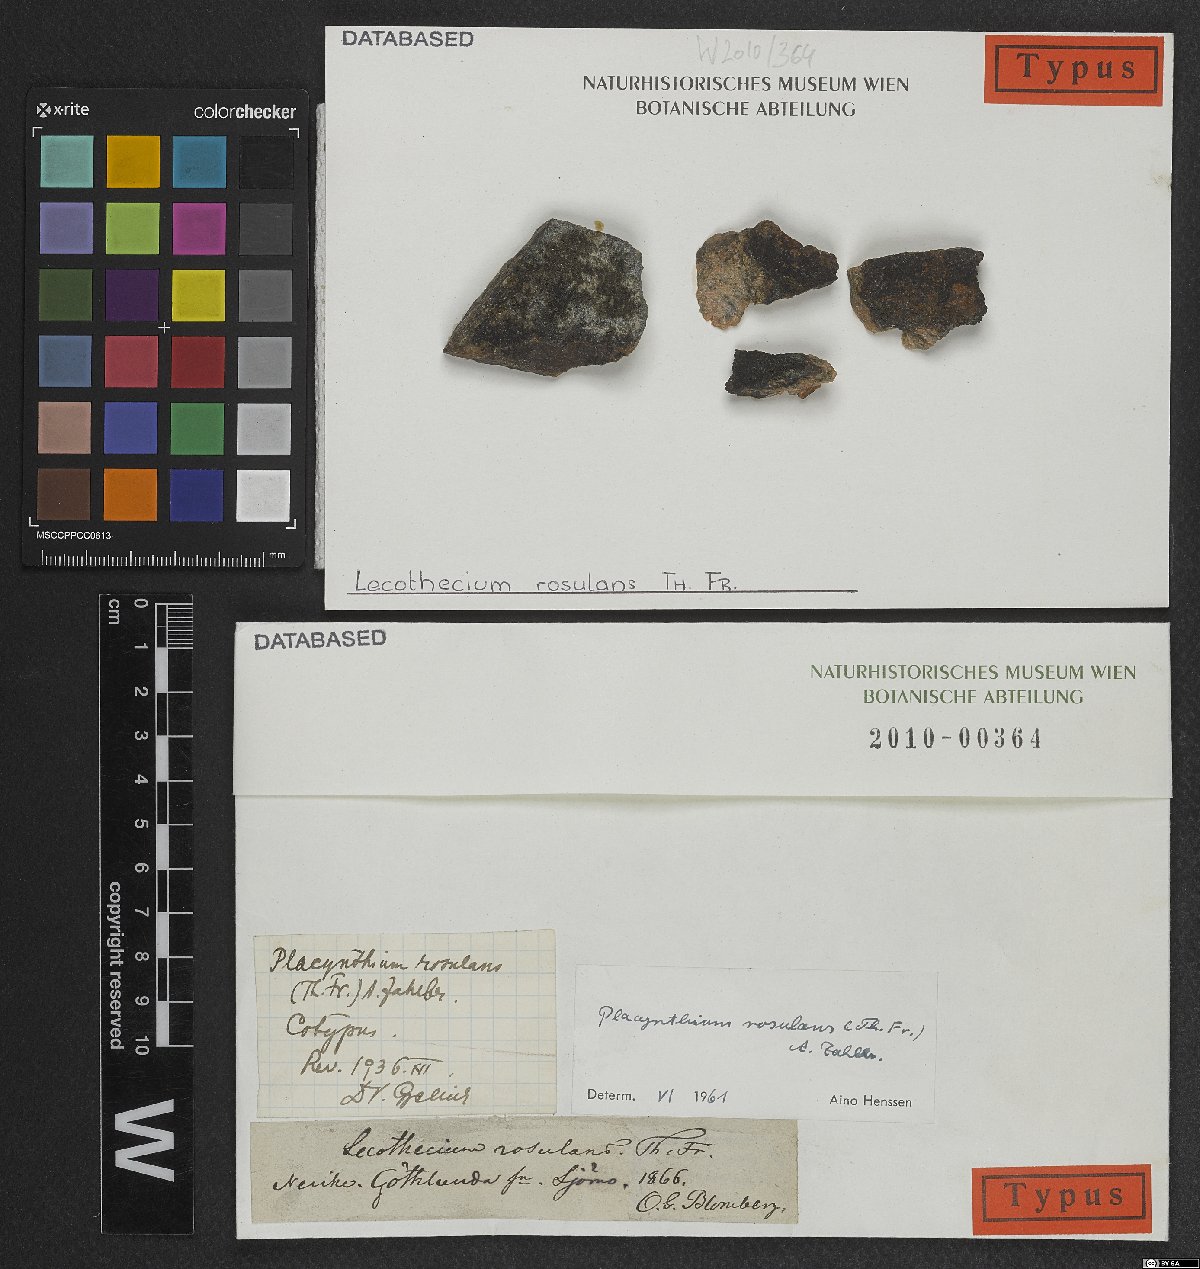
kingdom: Fungi
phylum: Ascomycota
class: Lecanoromycetes
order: Peltigerales
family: Placynthiaceae
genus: Placynthium
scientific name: Placynthium rosulans
